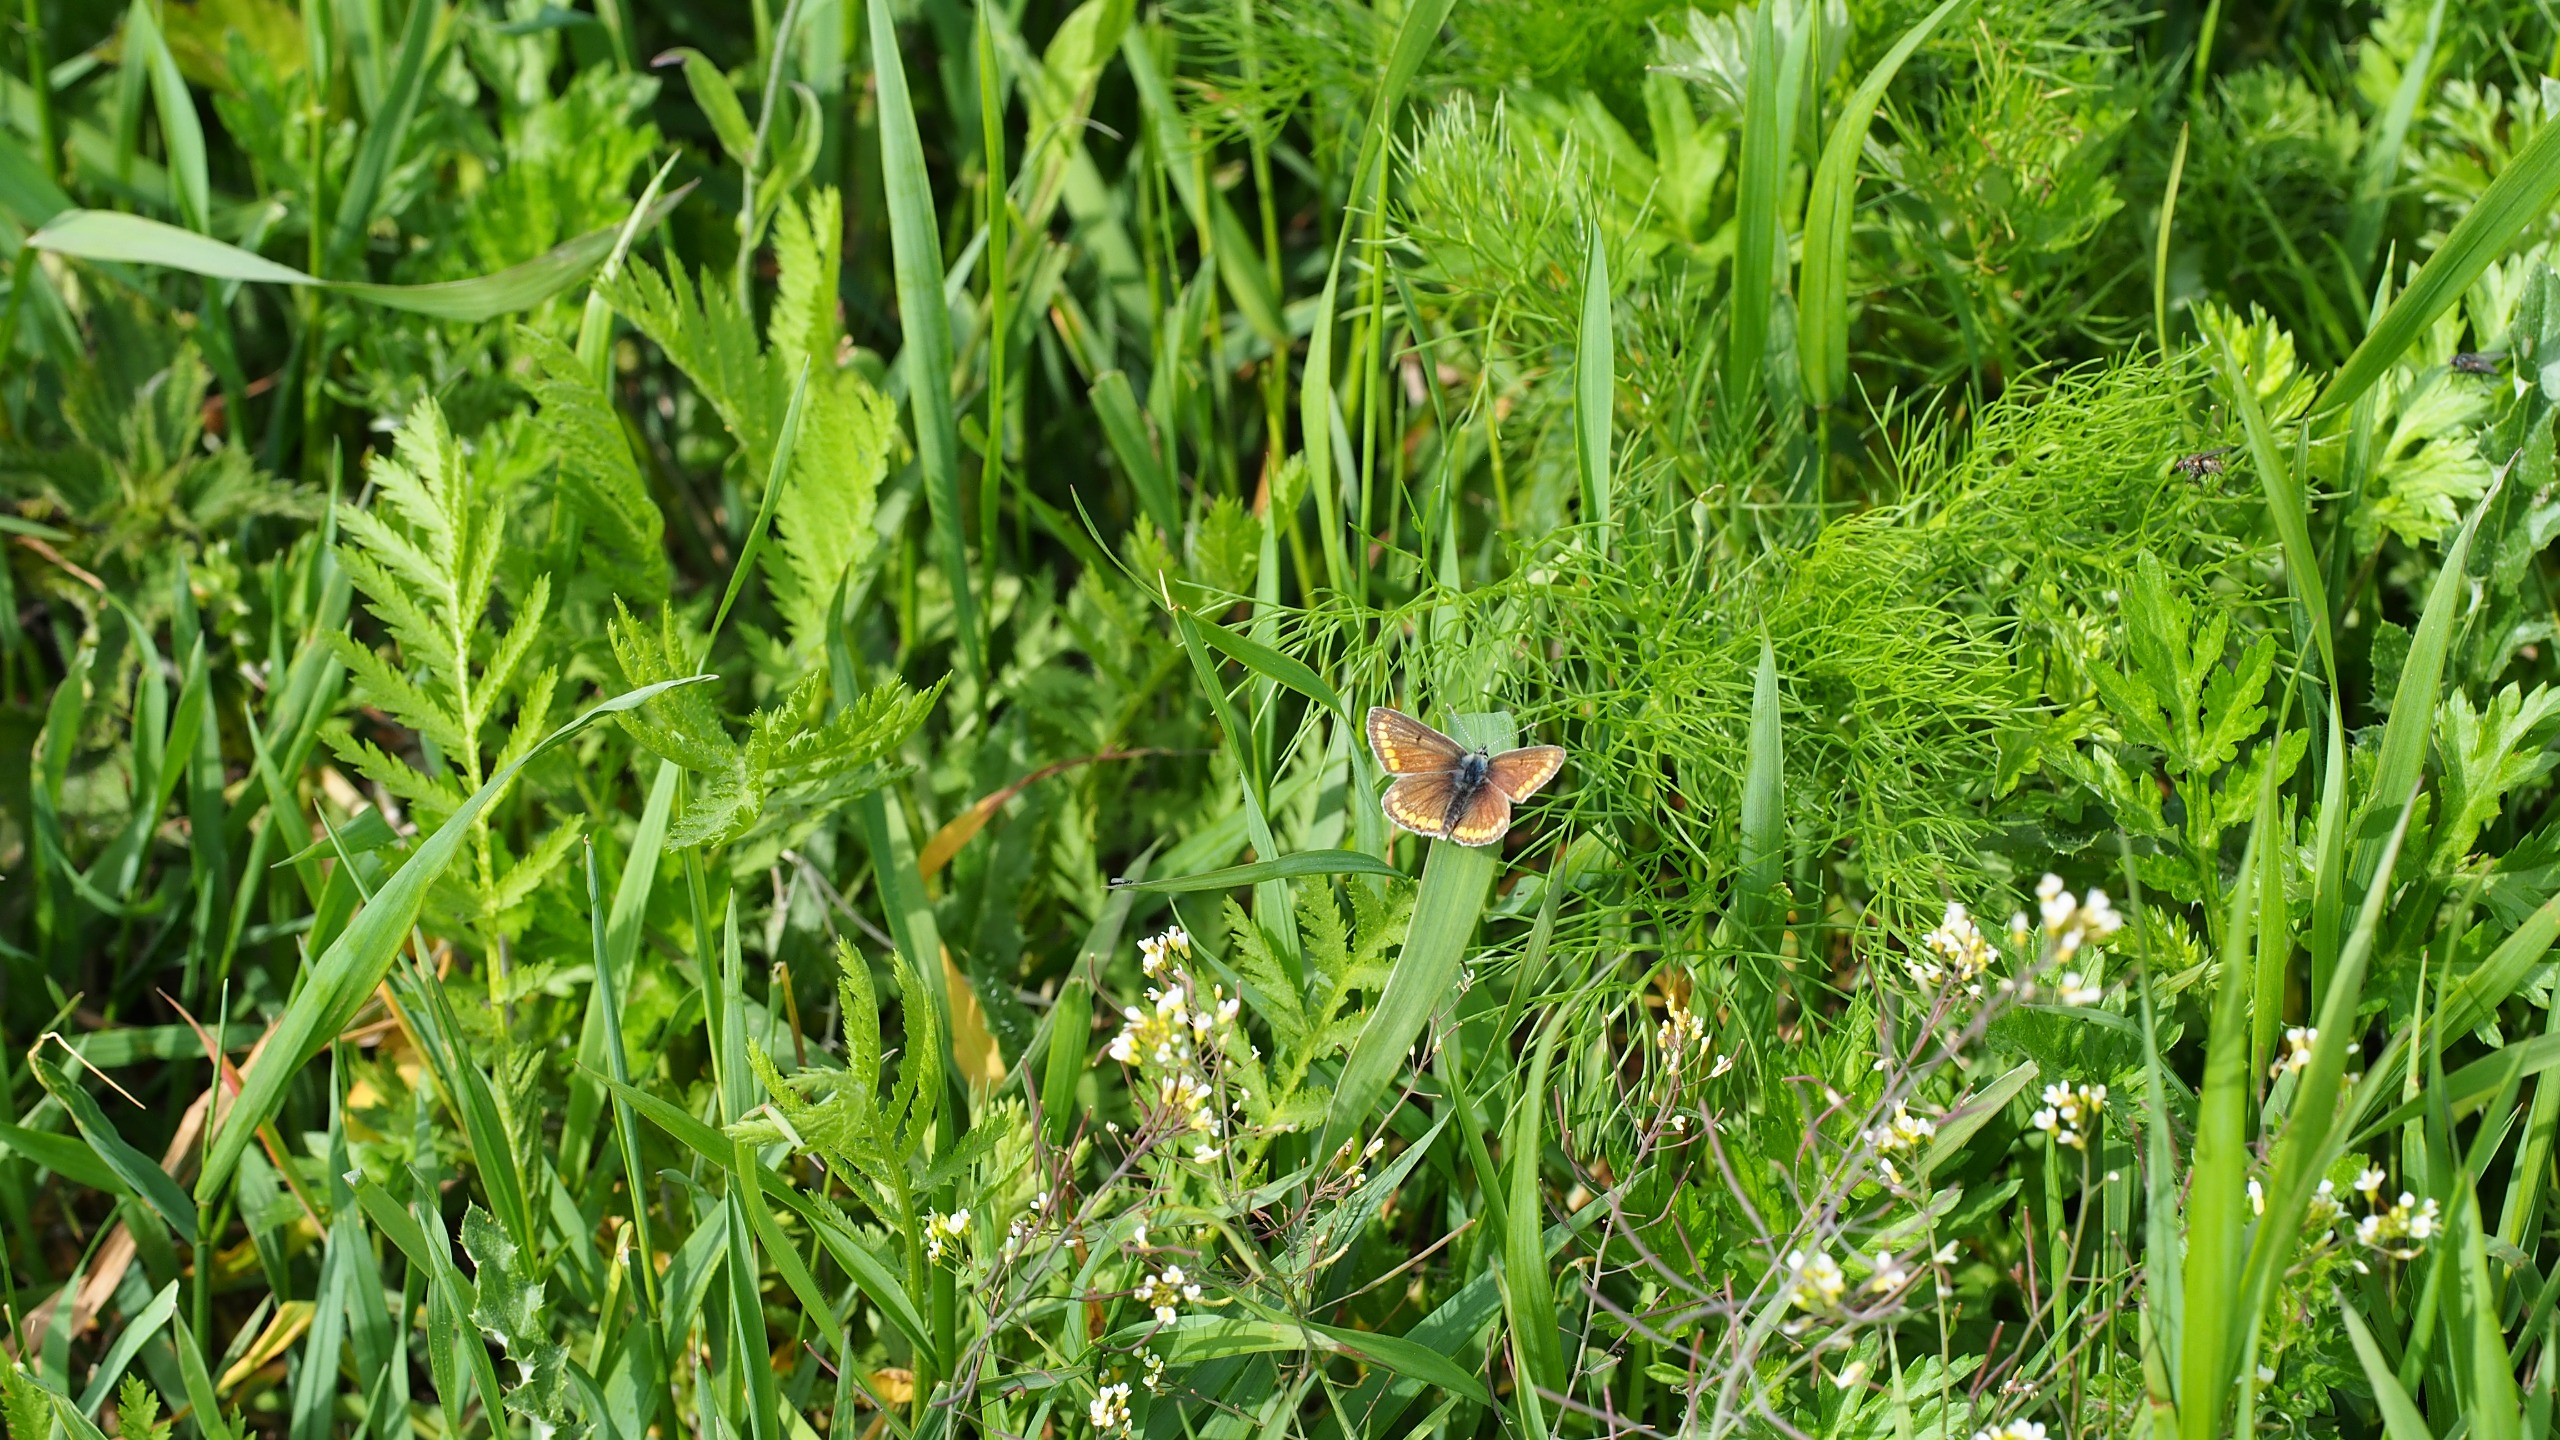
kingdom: Animalia
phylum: Arthropoda
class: Insecta
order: Lepidoptera
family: Lycaenidae
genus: Aricia
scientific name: Aricia agestis
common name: Rødplettet blåfugl
